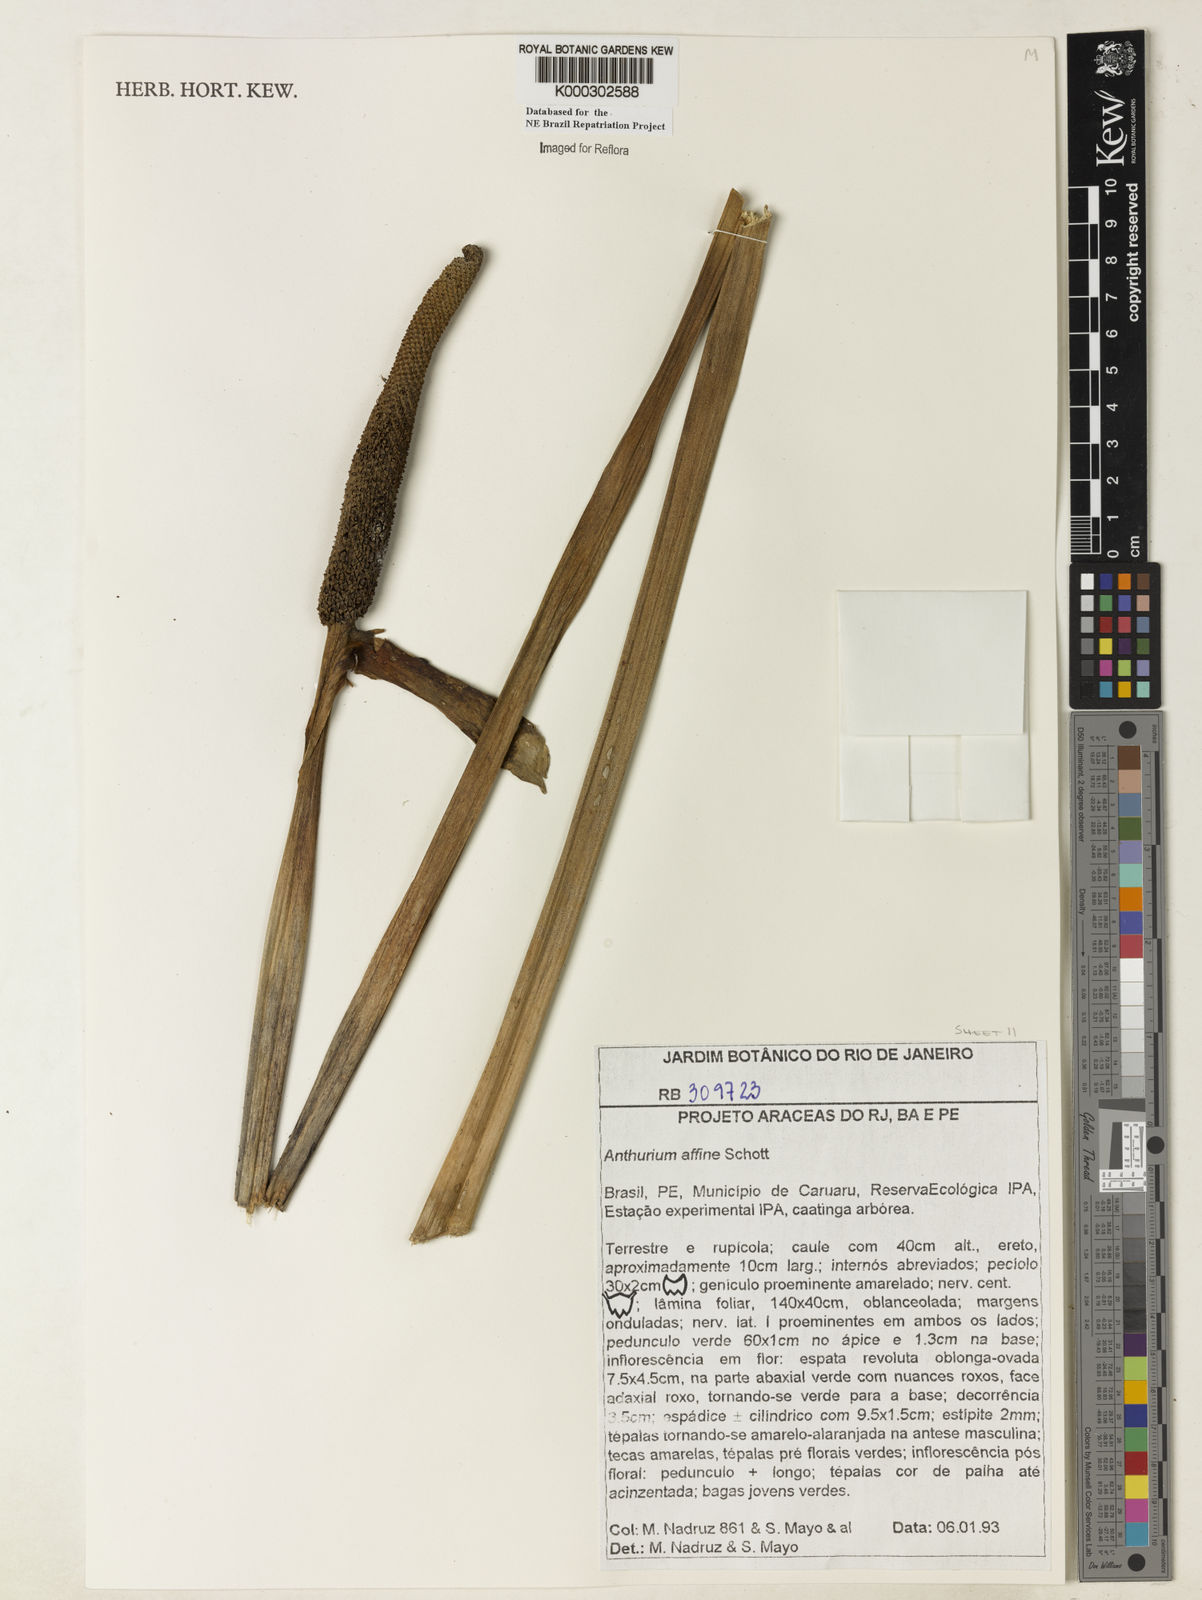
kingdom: Plantae
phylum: Tracheophyta
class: Liliopsida
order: Alismatales
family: Araceae
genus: Anthurium
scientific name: Anthurium affine
